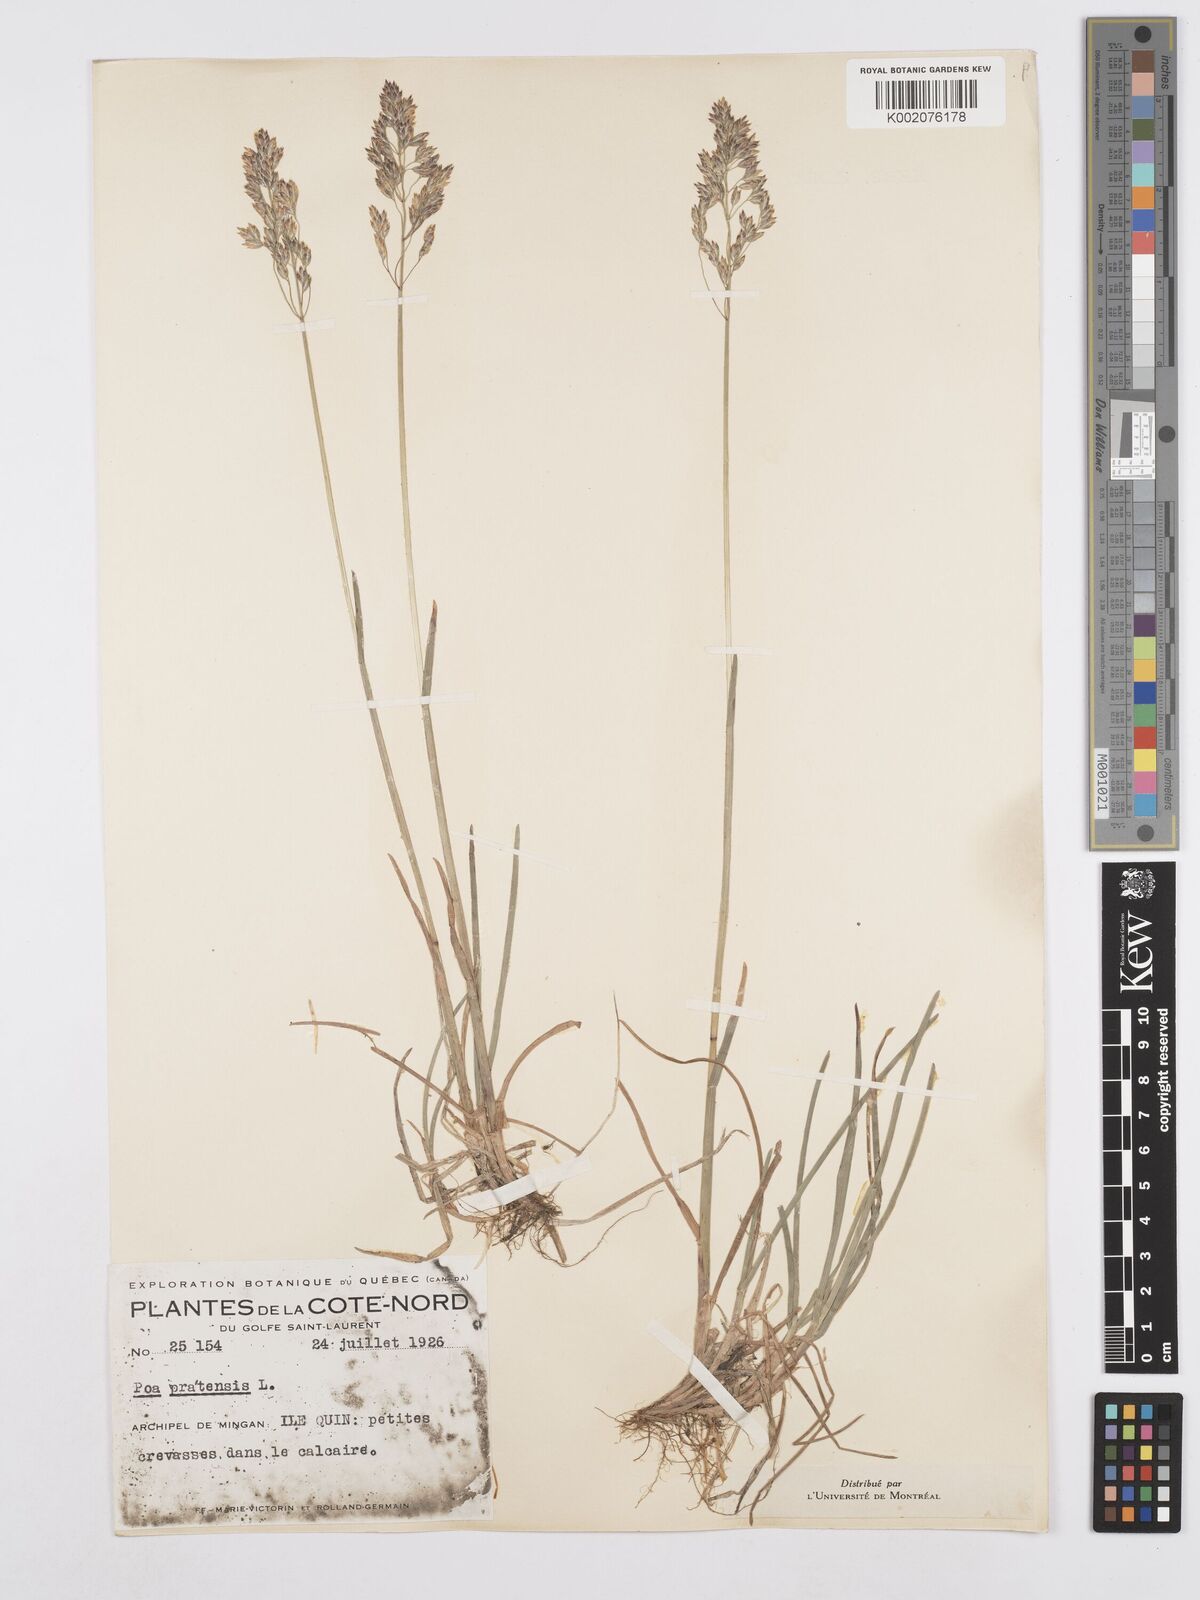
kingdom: Plantae
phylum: Tracheophyta
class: Liliopsida
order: Poales
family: Poaceae
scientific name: Poaceae
